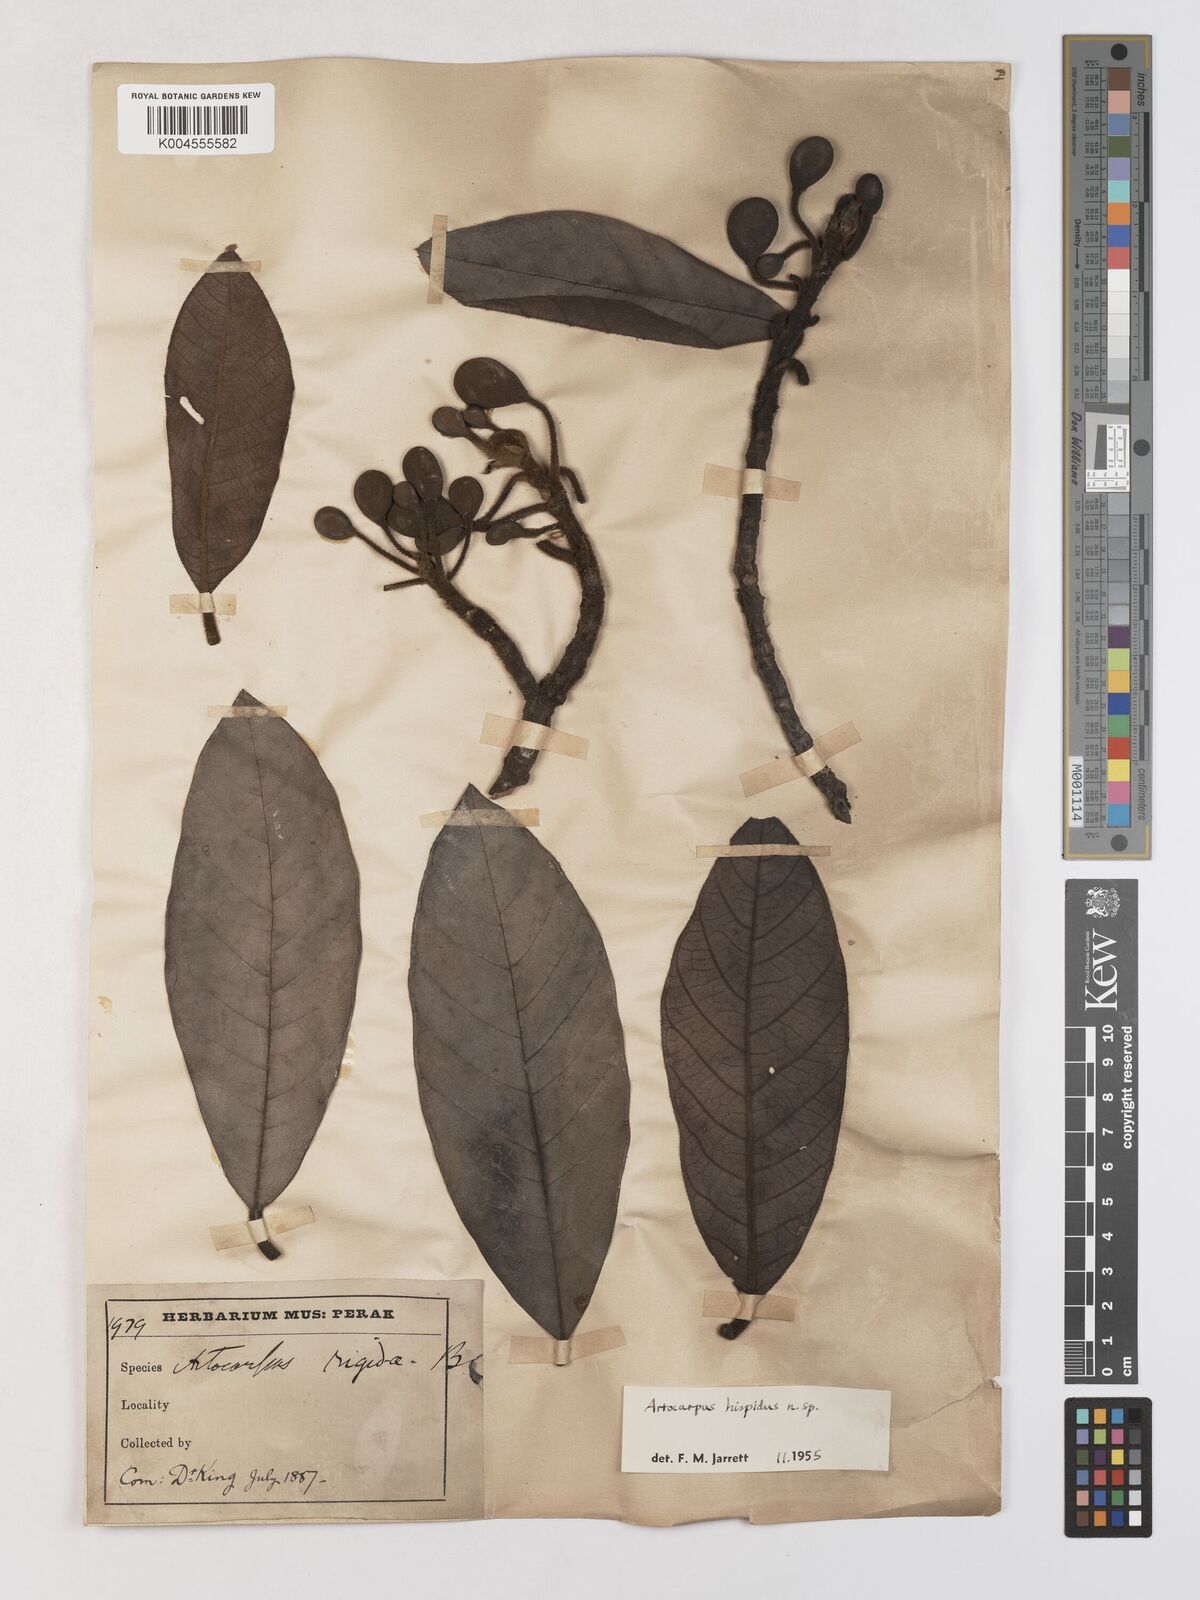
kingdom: Plantae
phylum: Tracheophyta
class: Magnoliopsida
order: Rosales
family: Moraceae
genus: Artocarpus
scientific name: Artocarpus hispidus
